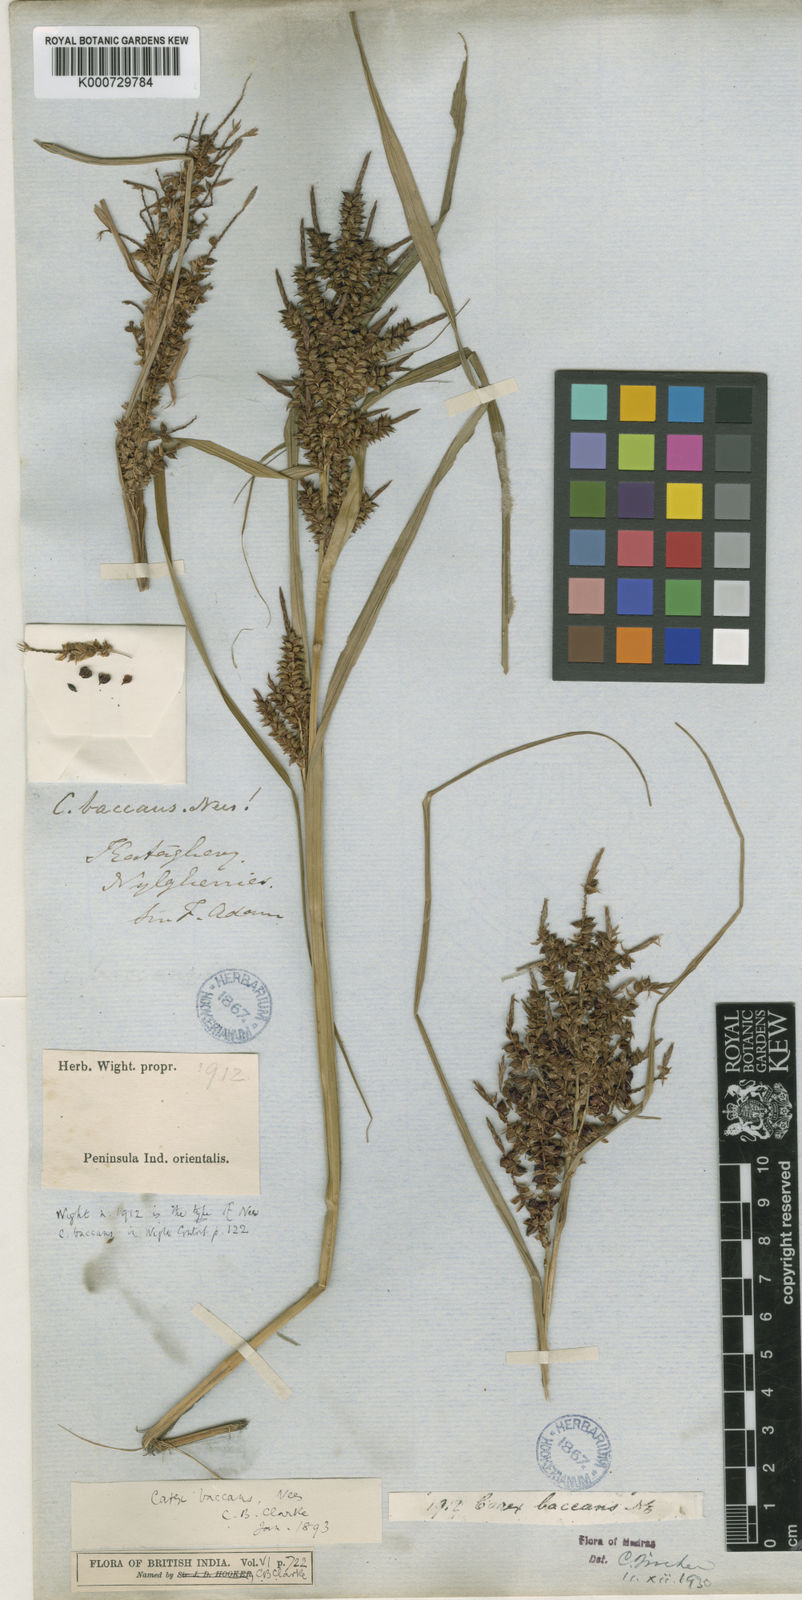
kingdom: Plantae
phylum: Tracheophyta
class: Liliopsida
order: Poales
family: Cyperaceae
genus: Carex
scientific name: Carex baccans
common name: Crimson seeded sedge
